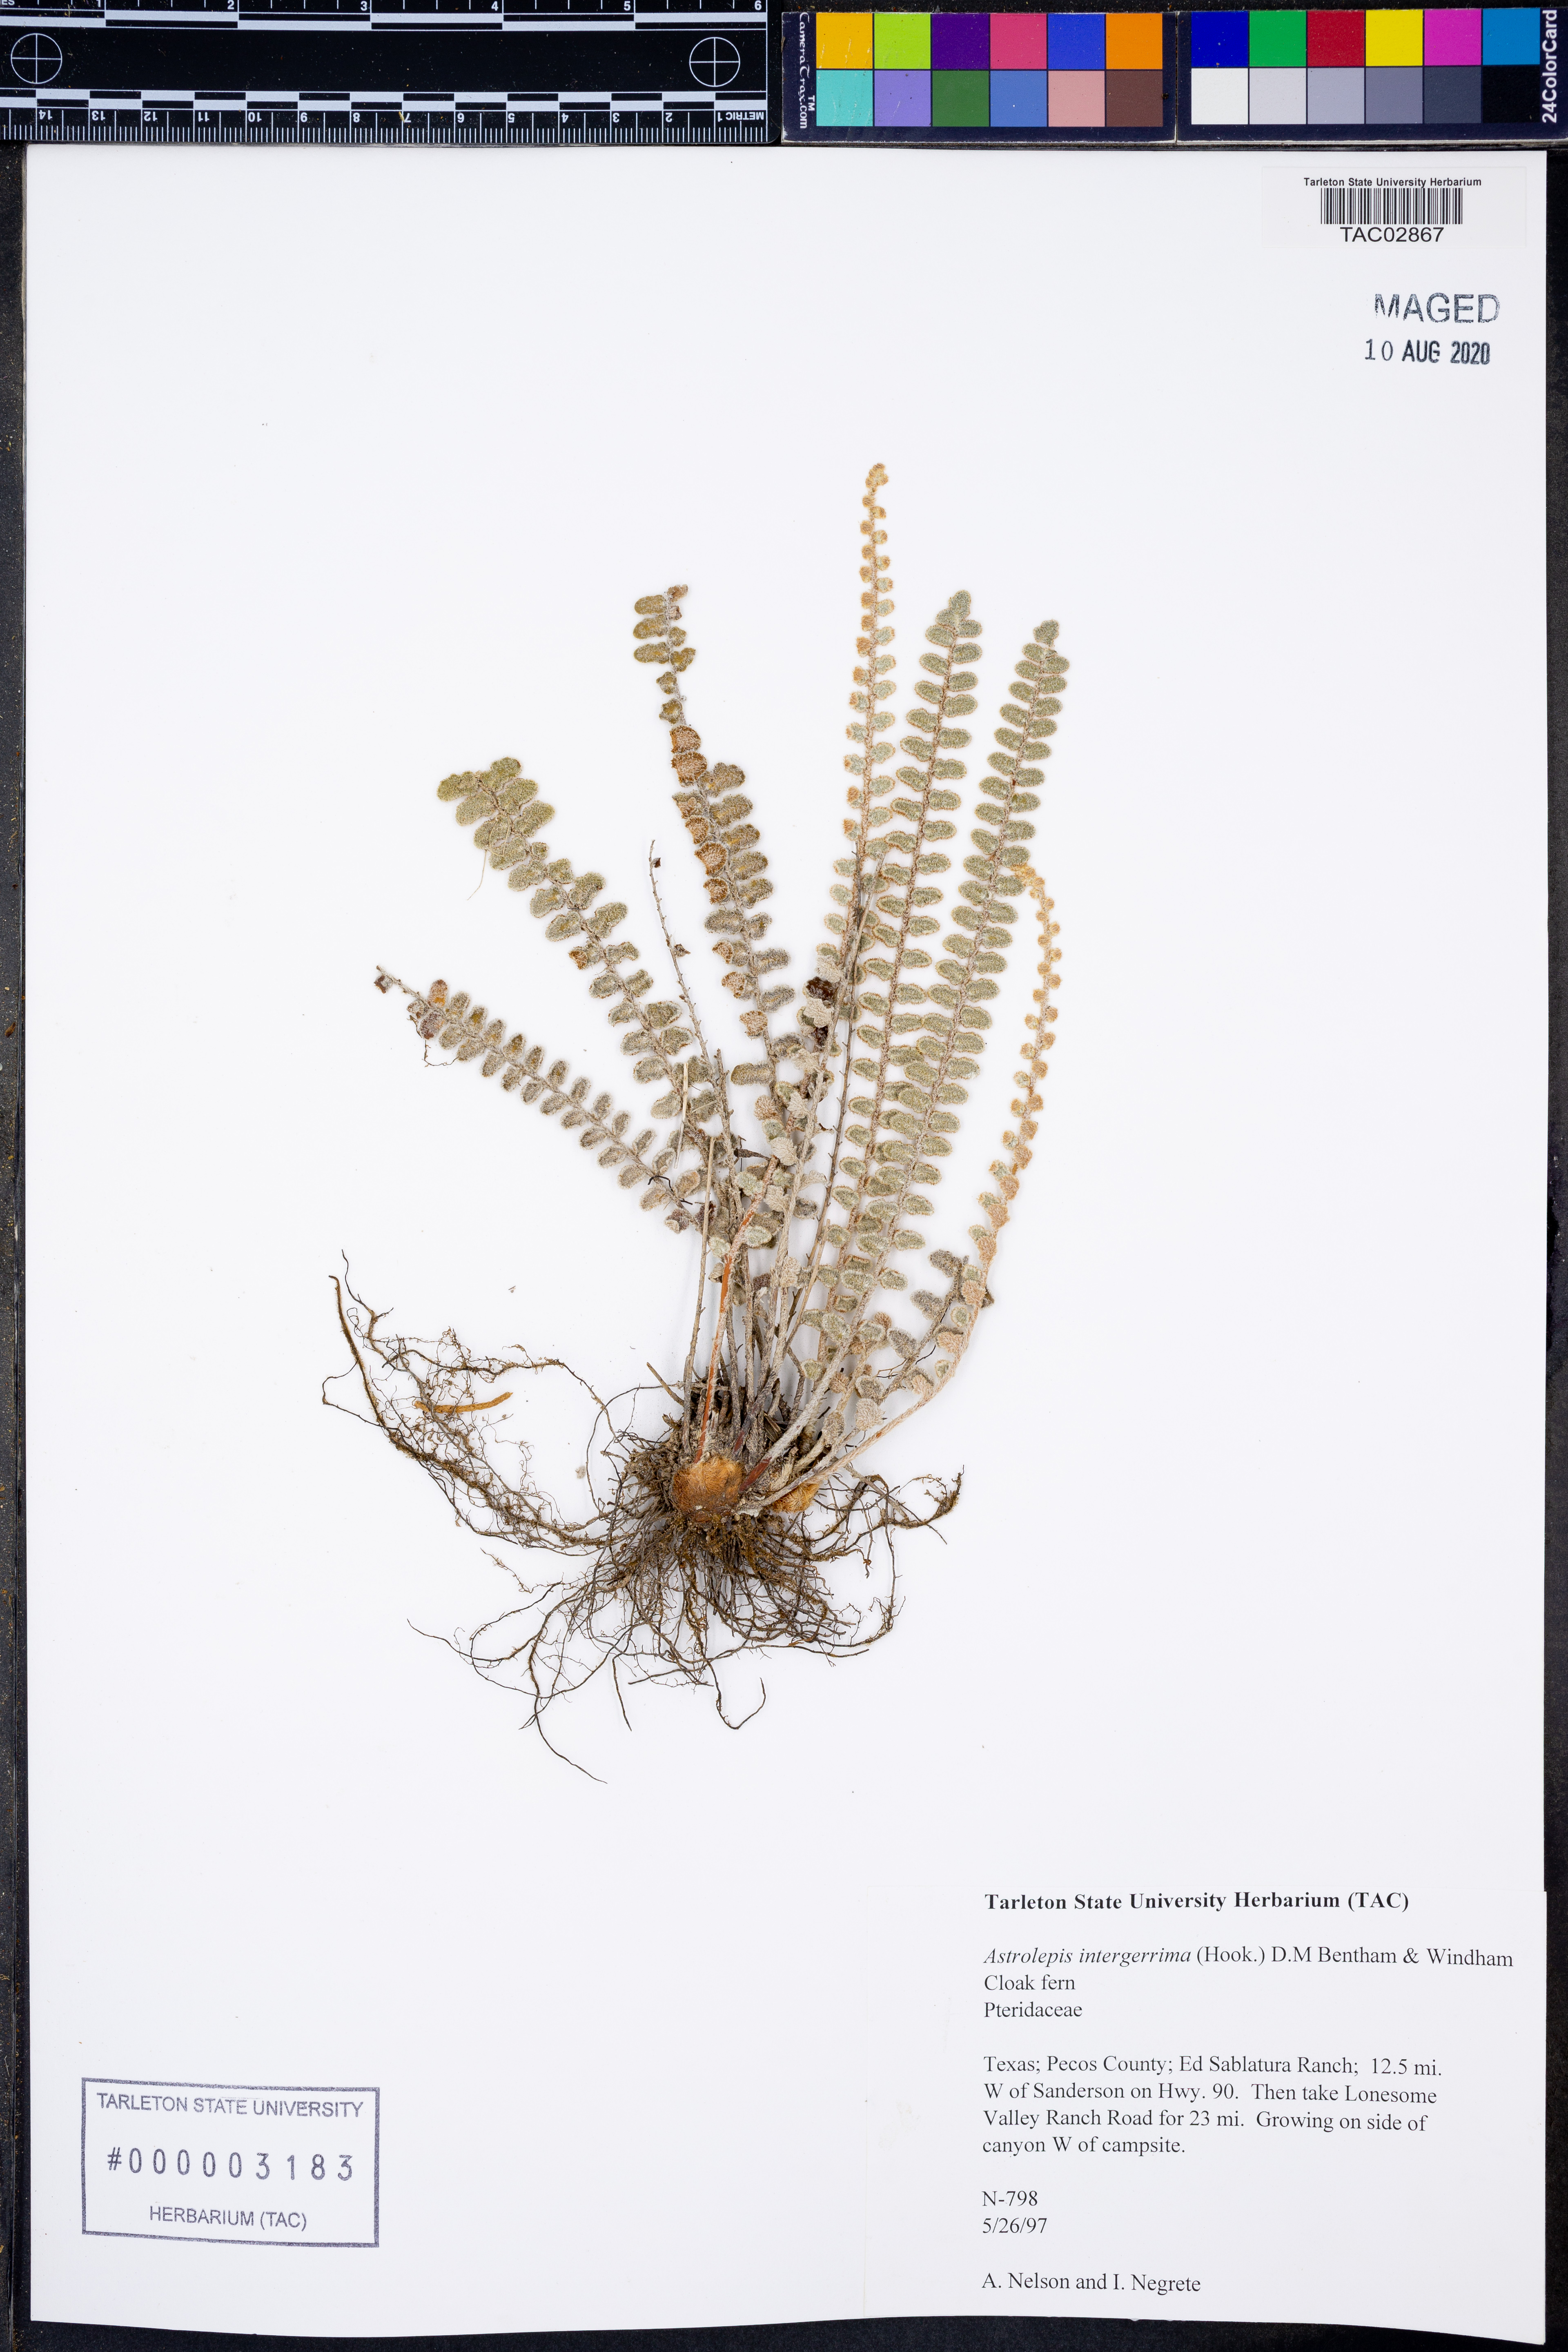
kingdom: Plantae
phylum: Tracheophyta
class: Polypodiopsida
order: Polypodiales
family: Pteridaceae
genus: Astrolepis
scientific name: Astrolepis integerrima
